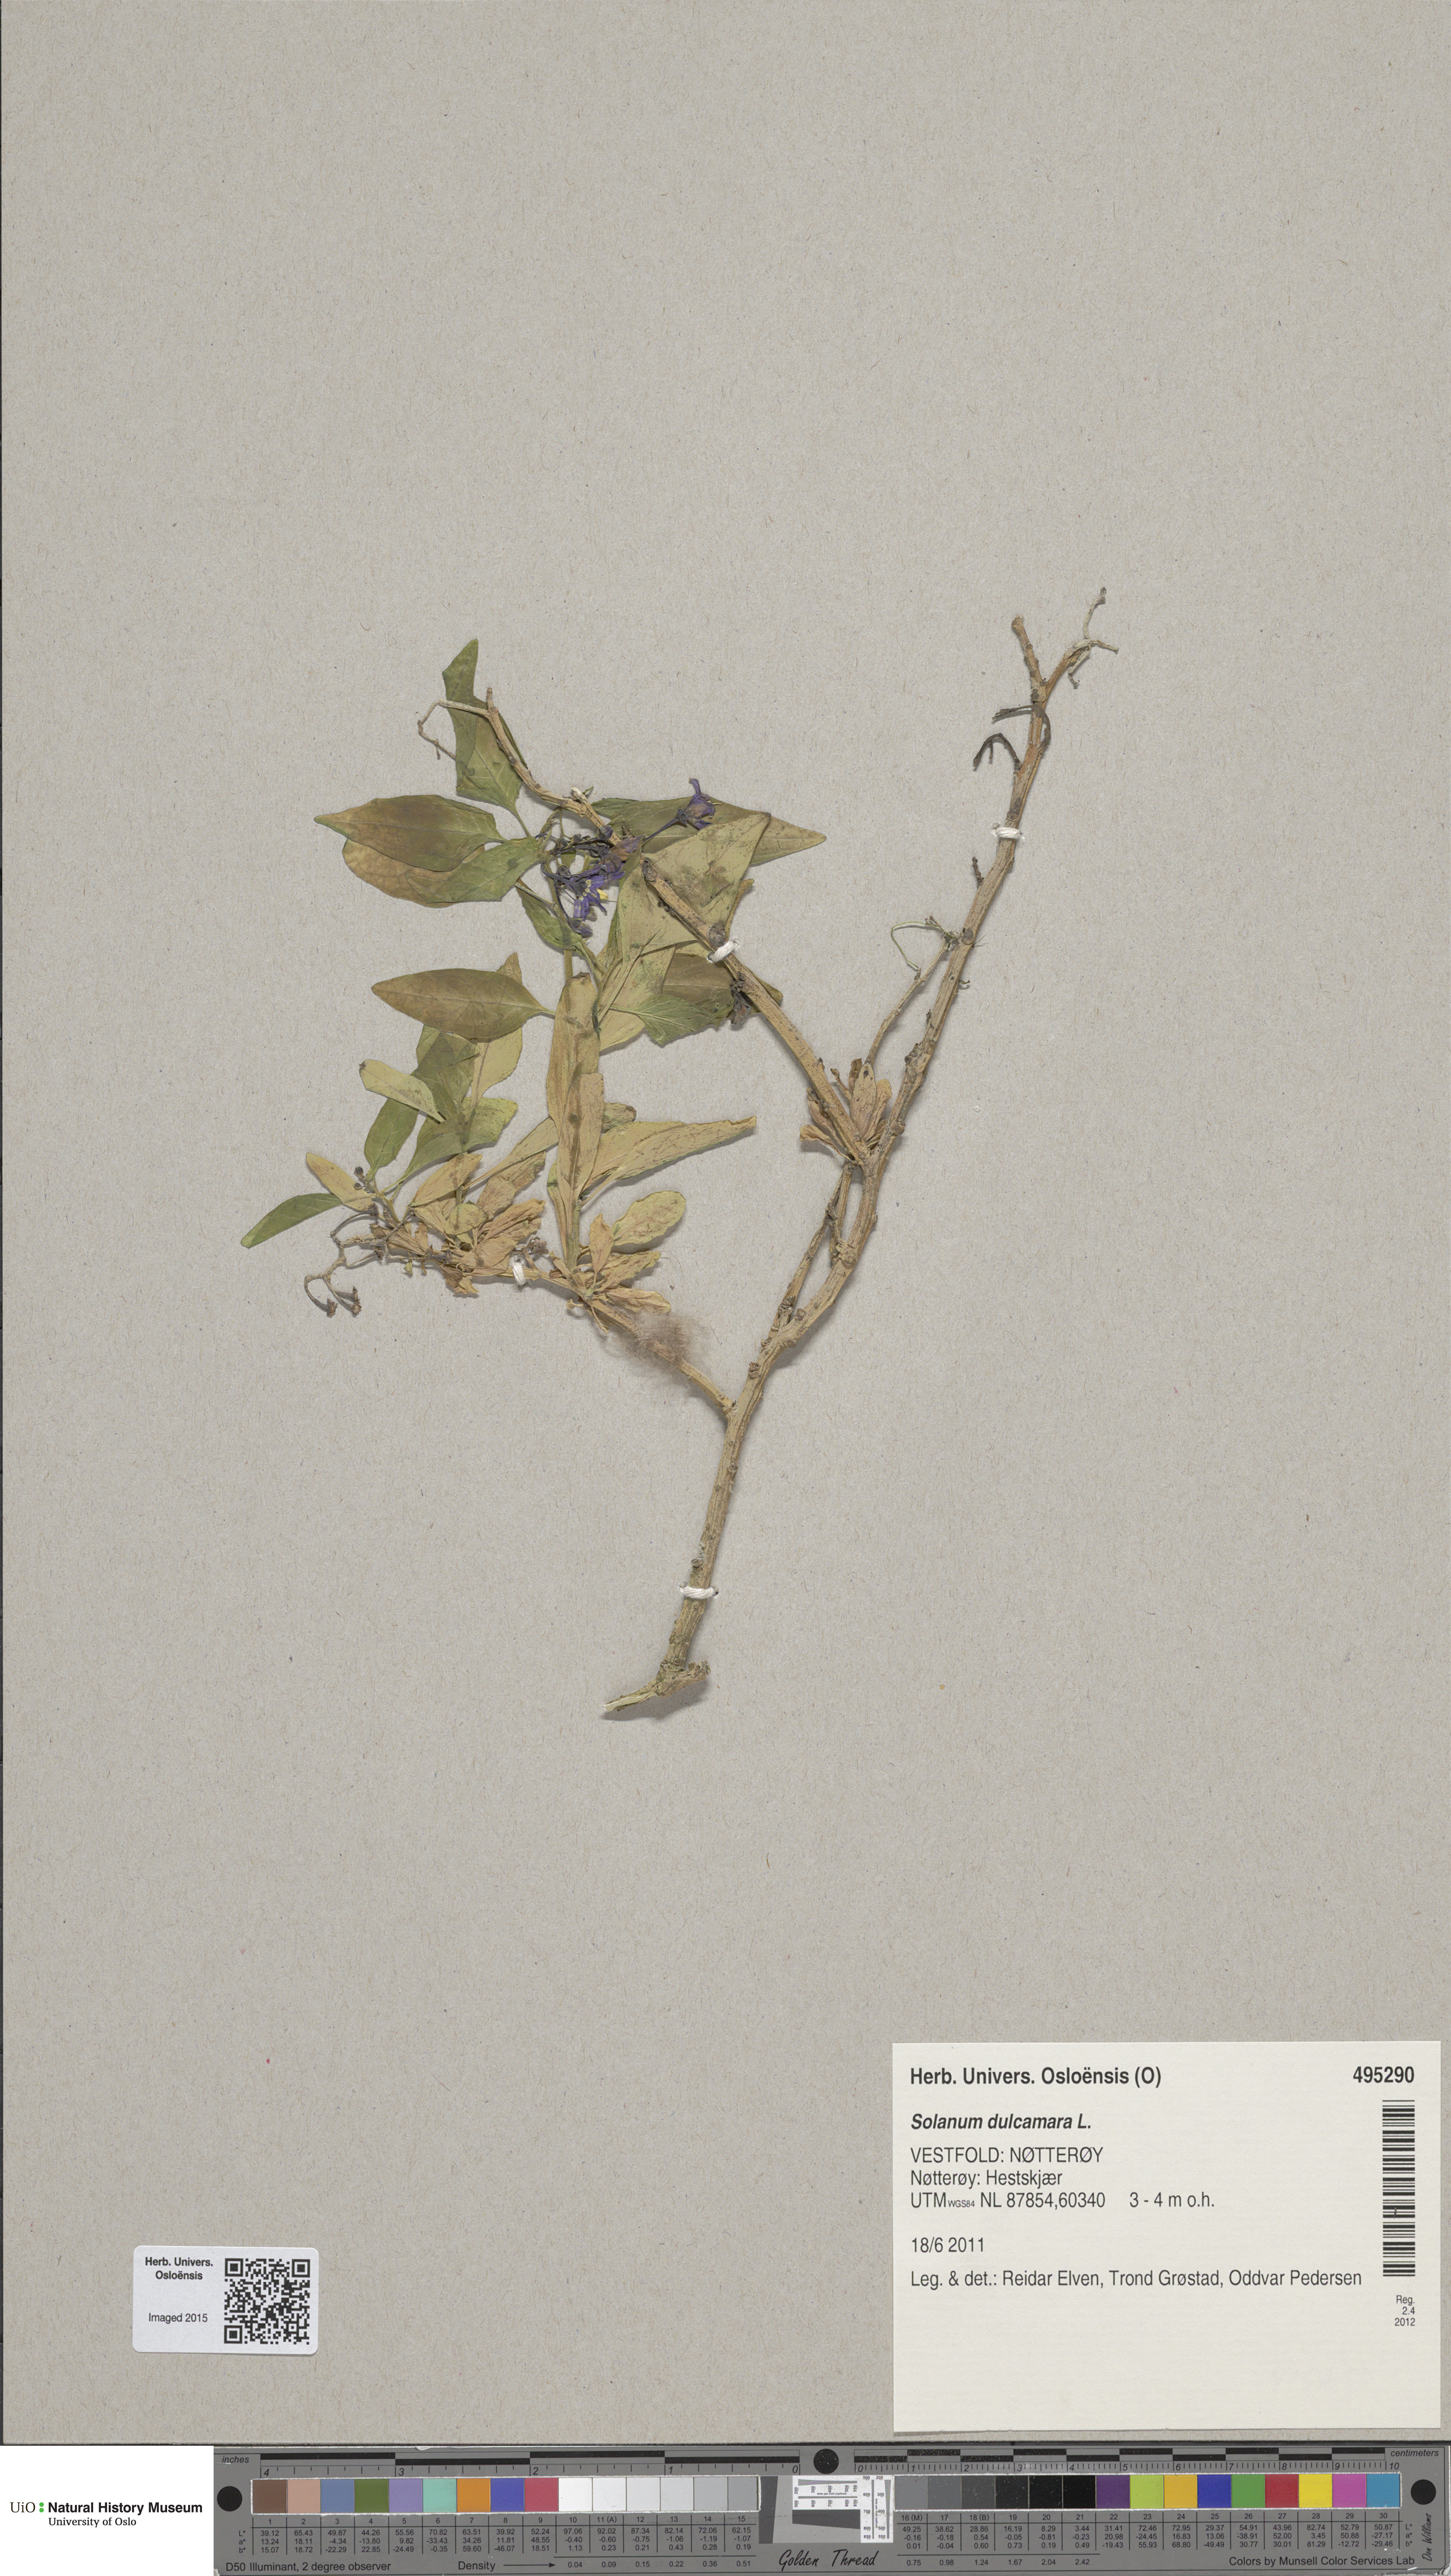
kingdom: Plantae
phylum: Tracheophyta
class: Magnoliopsida
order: Solanales
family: Solanaceae
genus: Solanum
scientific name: Solanum dulcamara
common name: Climbing nightshade
